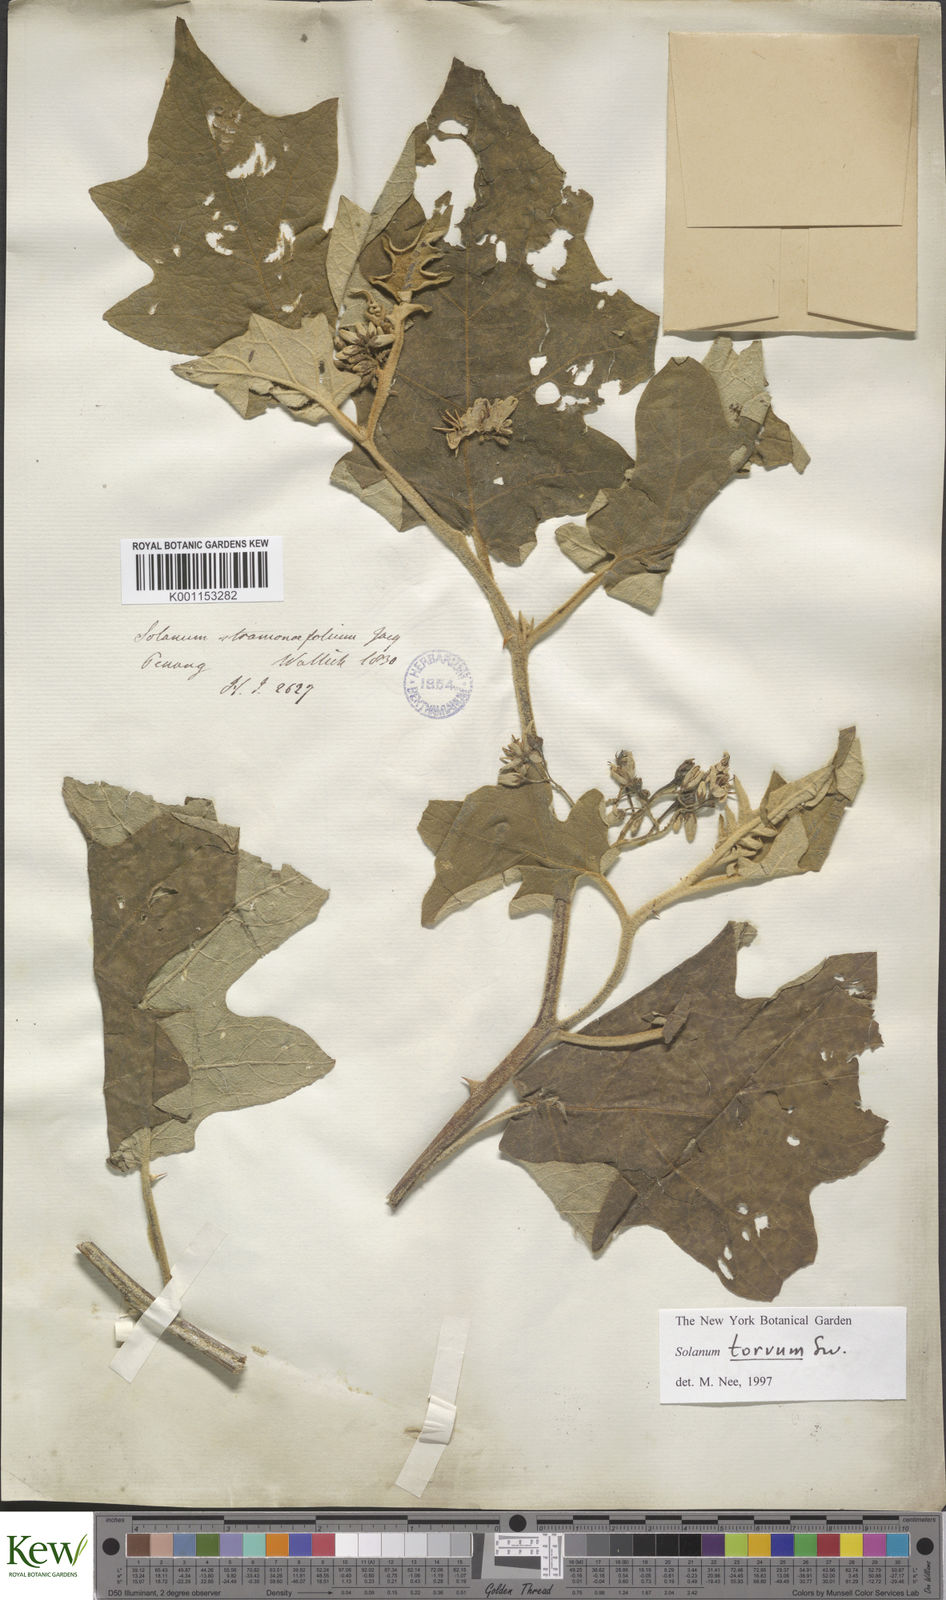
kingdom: Plantae
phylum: Tracheophyta
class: Magnoliopsida
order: Solanales
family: Solanaceae
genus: Solanum
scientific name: Solanum torvum
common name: Turkey berry
